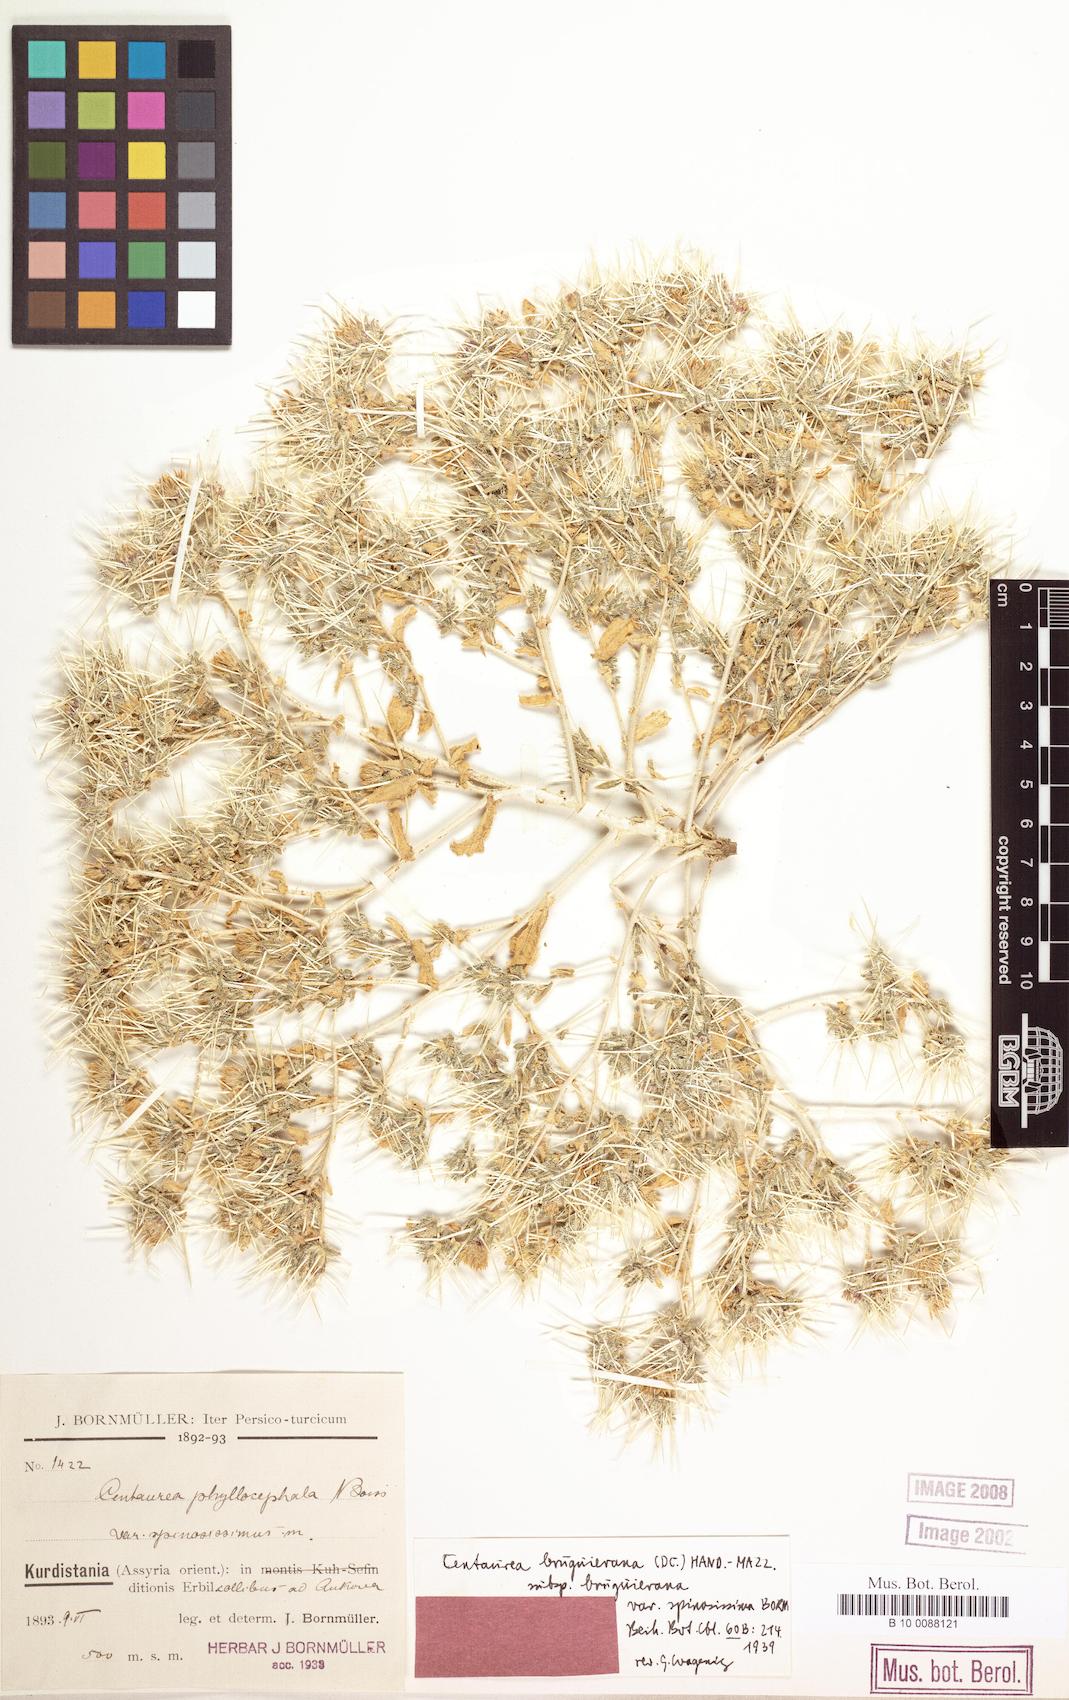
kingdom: Plantae
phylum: Tracheophyta
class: Magnoliopsida
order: Asterales
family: Asteraceae
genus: Centaurea
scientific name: Centaurea bruguiereana
